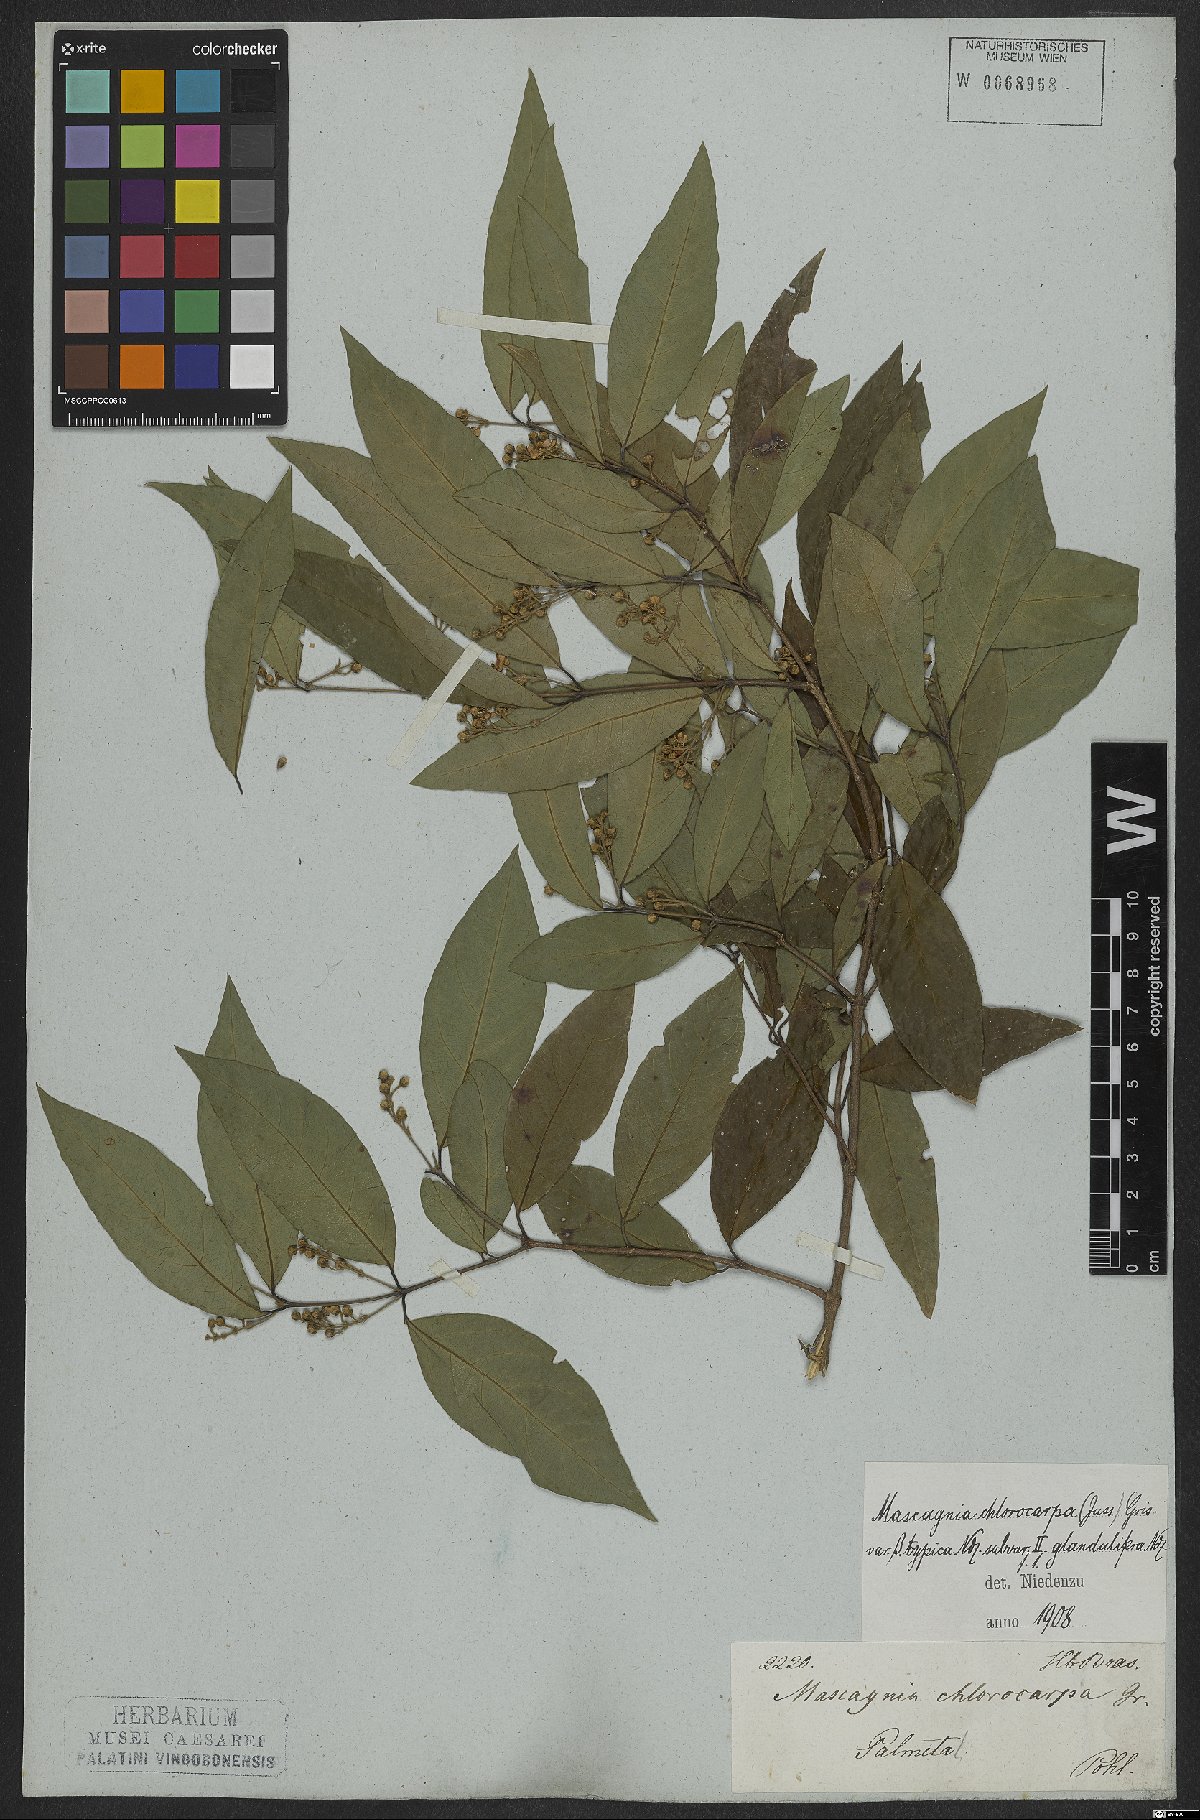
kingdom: Plantae
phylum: Tracheophyta
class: Magnoliopsida
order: Malpighiales
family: Malpighiaceae
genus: Carolus
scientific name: Carolus chlorocarpus
